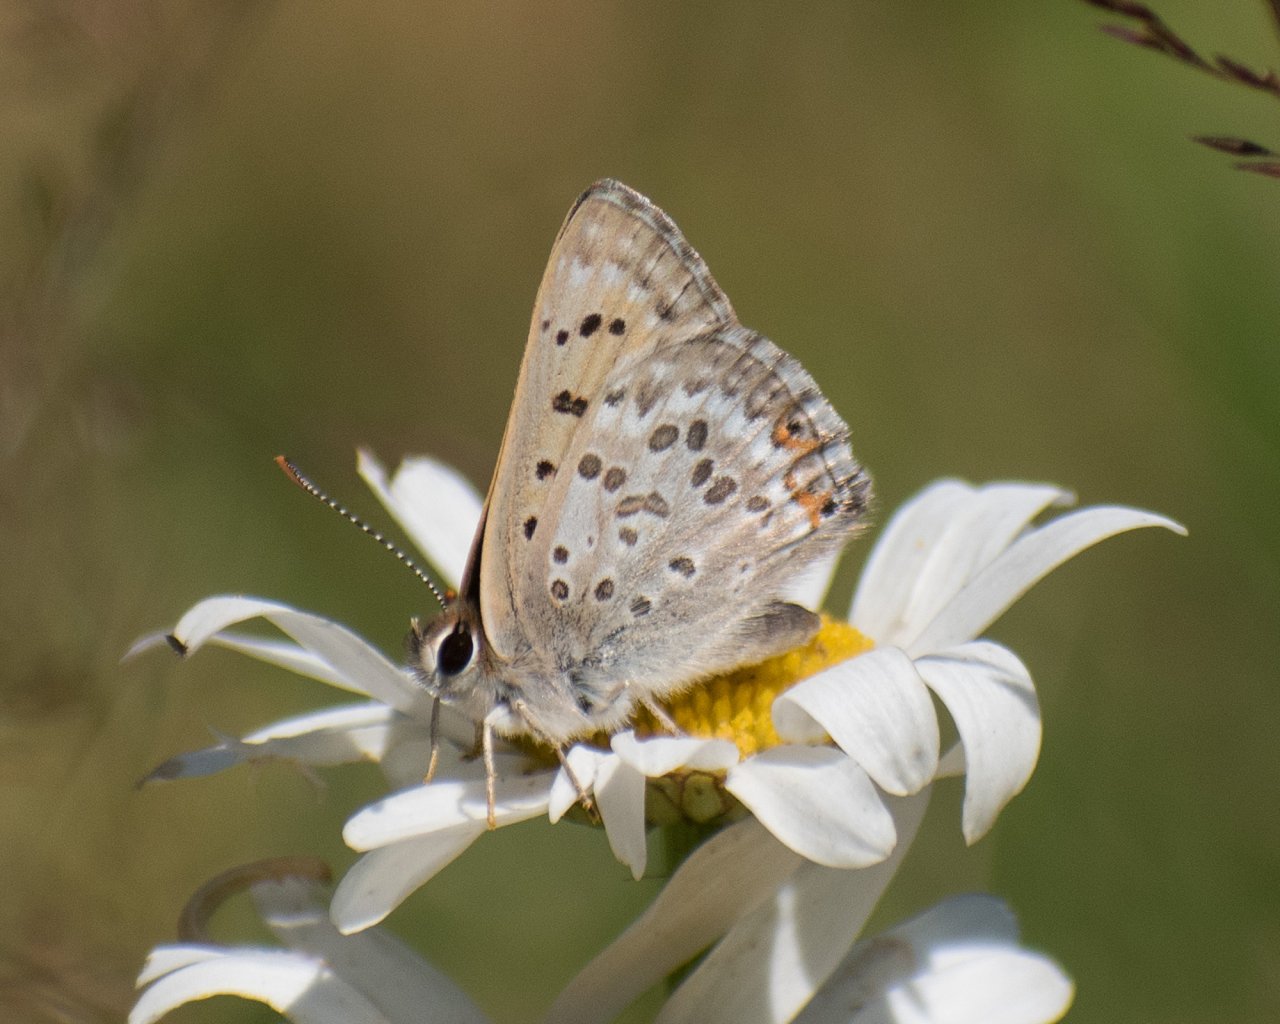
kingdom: Animalia
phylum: Arthropoda
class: Insecta
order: Lepidoptera
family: Lycaenidae
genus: Lycaena
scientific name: Lycaena editha
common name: Edith's Copper
